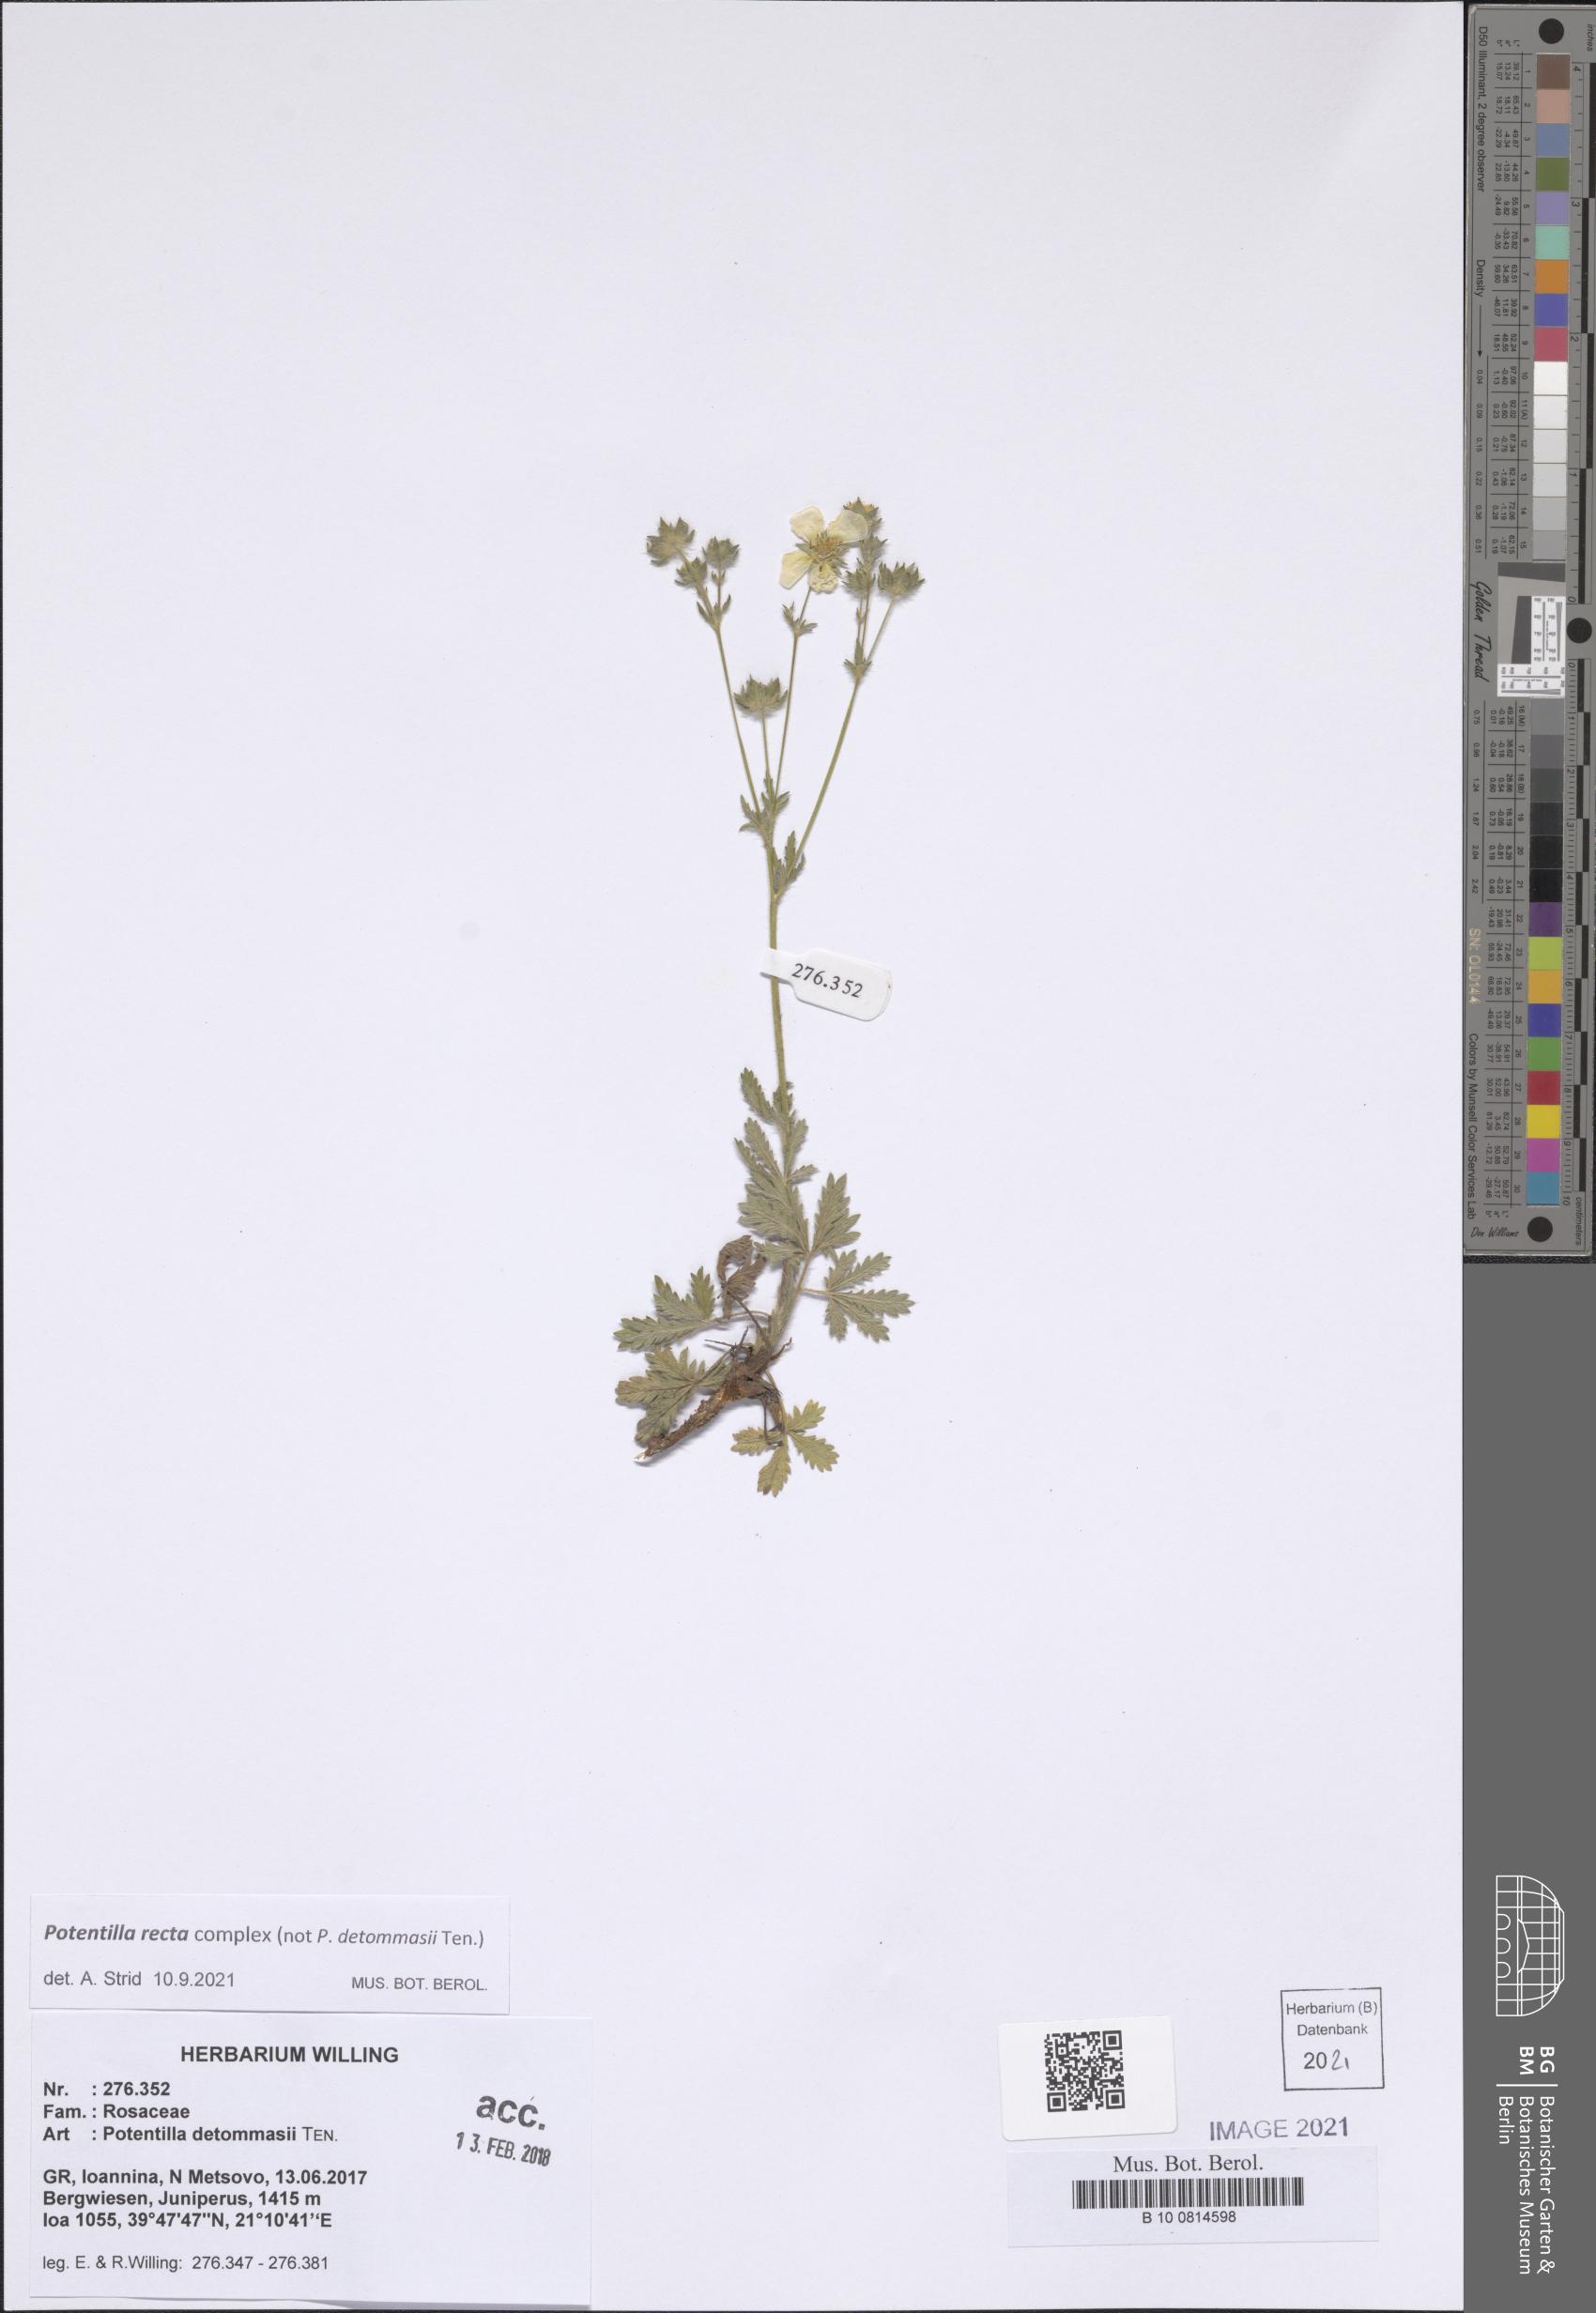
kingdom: Plantae
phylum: Tracheophyta
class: Magnoliopsida
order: Rosales
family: Rosaceae
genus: Potentilla
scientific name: Potentilla recta
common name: Sulphur cinquefoil
